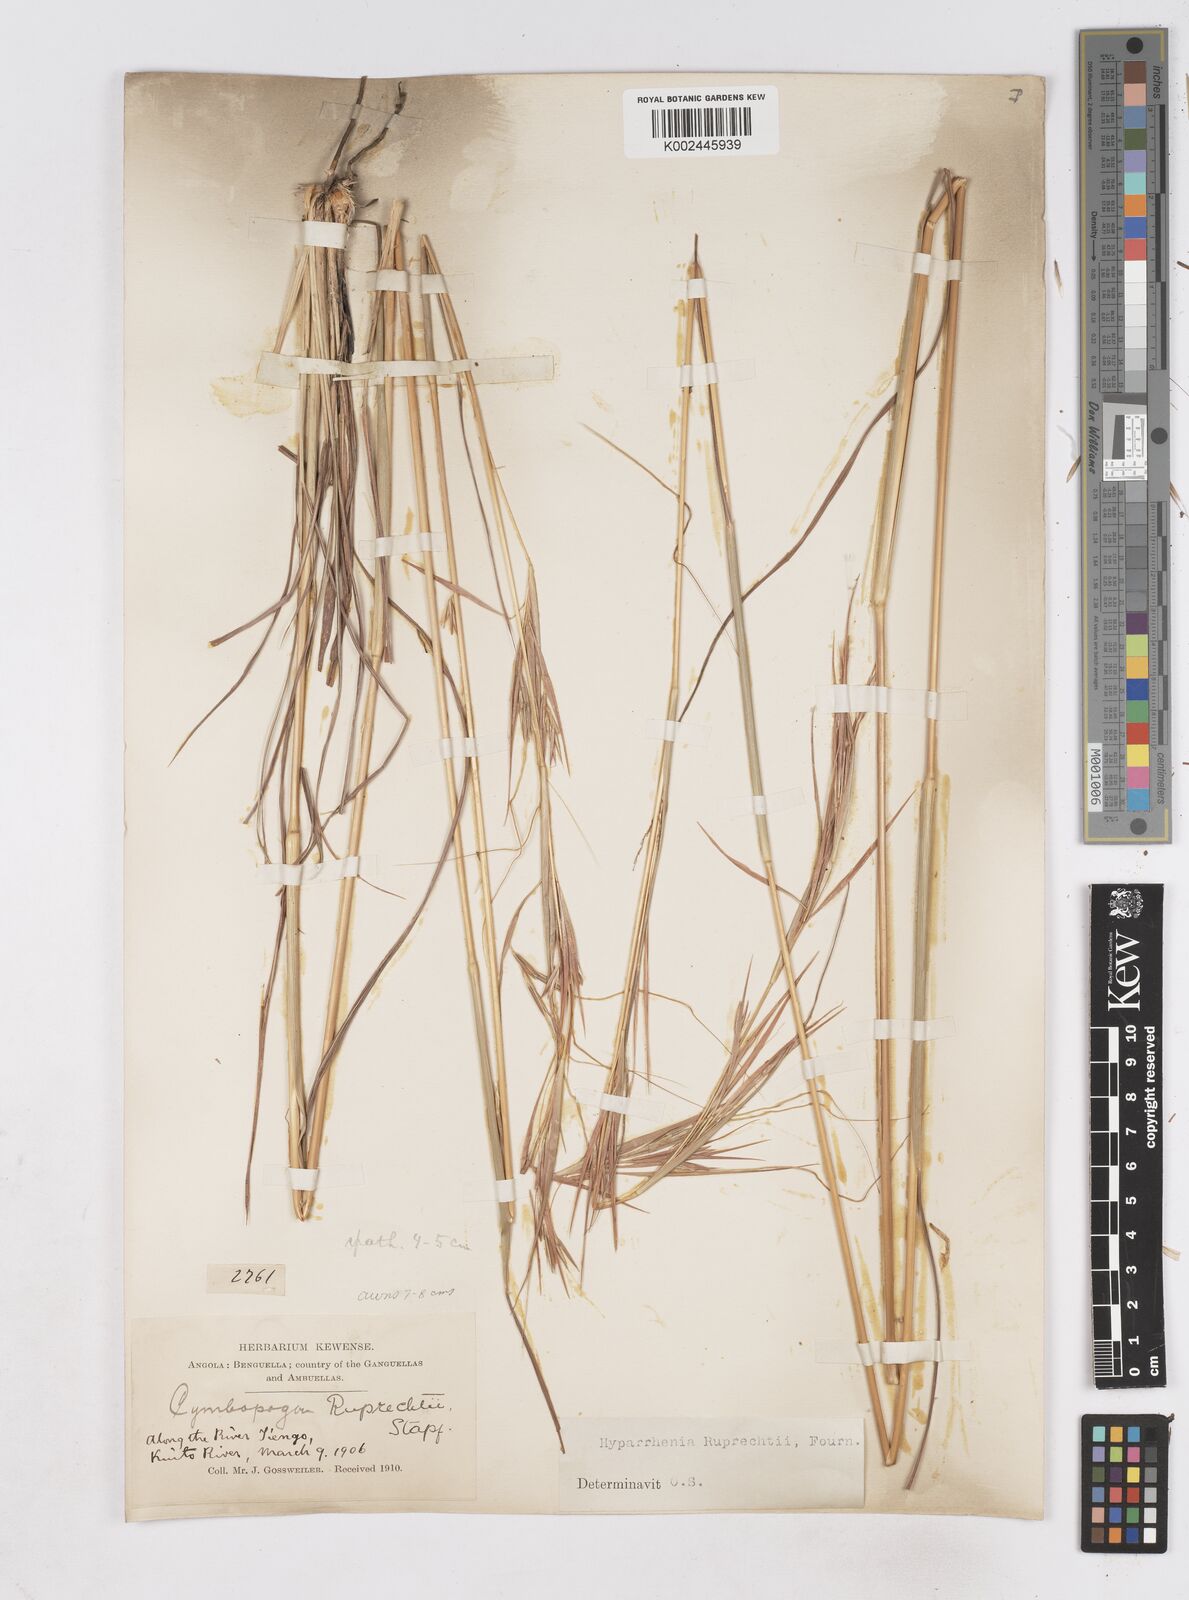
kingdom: Plantae
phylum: Tracheophyta
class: Liliopsida
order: Poales
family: Poaceae
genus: Hyperthelia
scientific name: Hyperthelia dissoluta
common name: Yellow thatching grass
